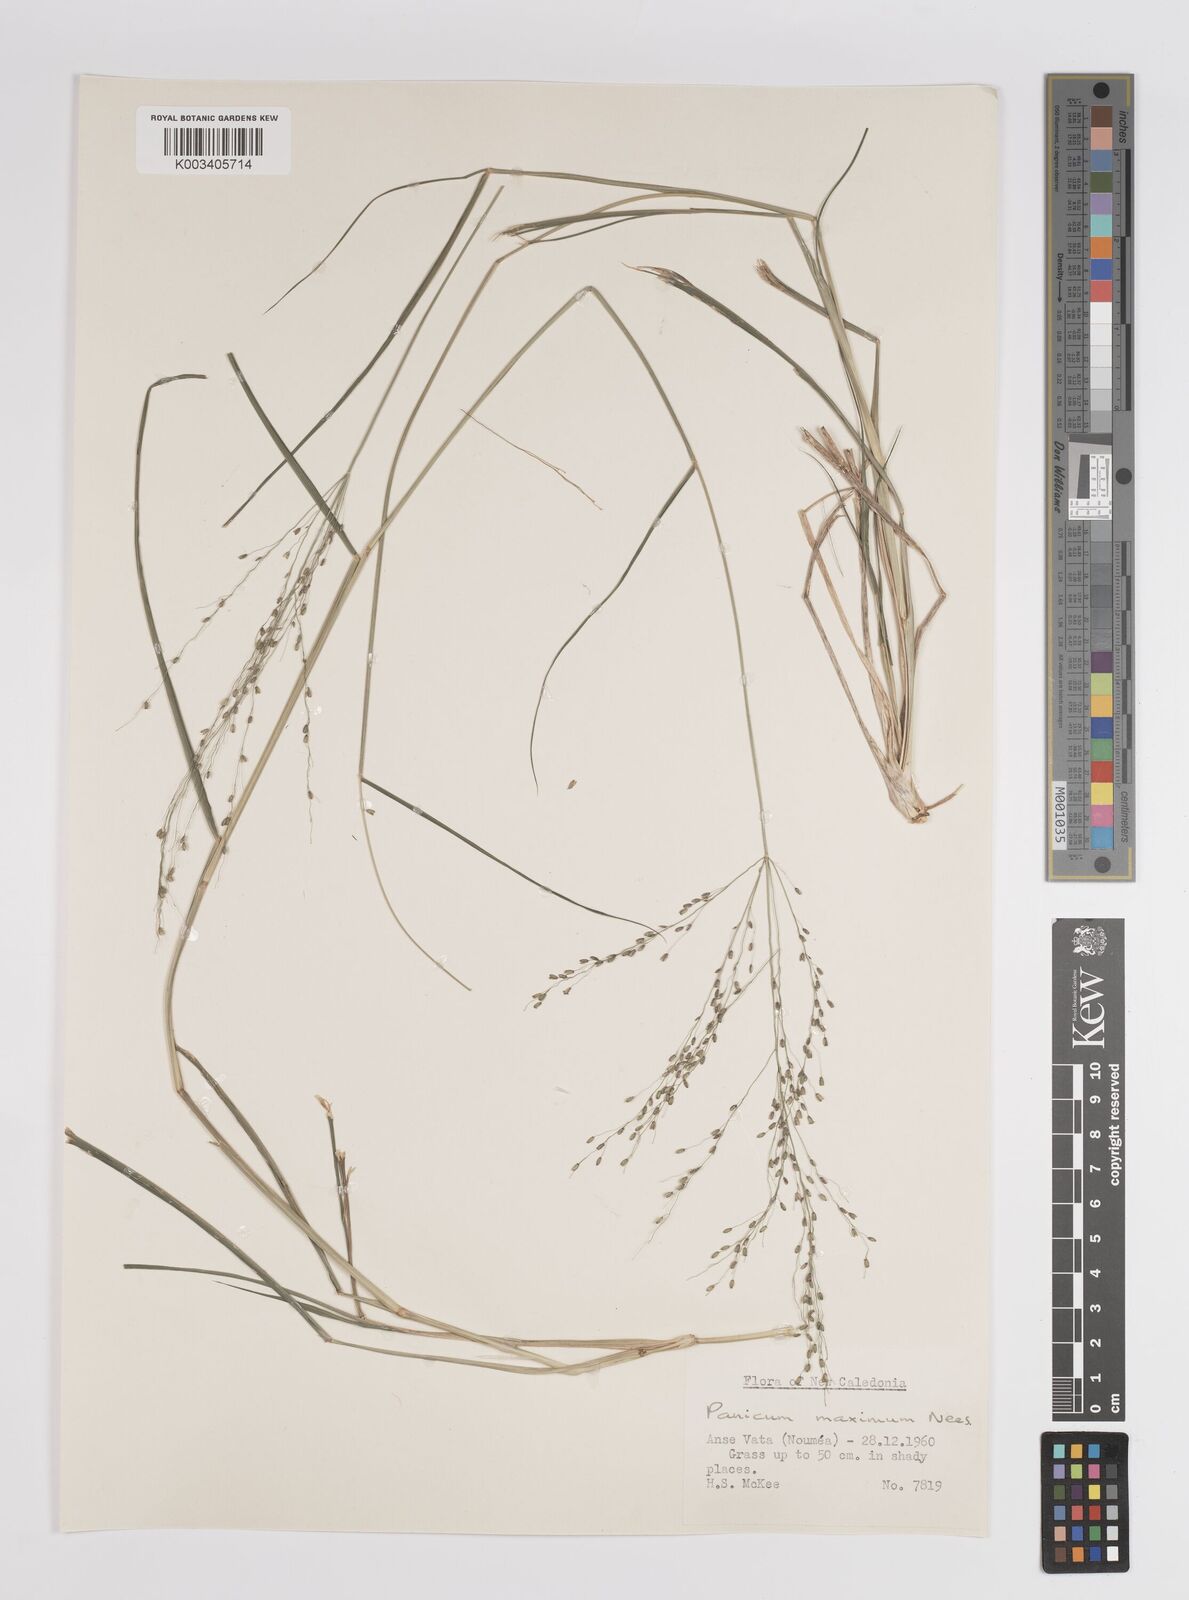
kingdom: Plantae
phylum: Tracheophyta
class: Liliopsida
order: Poales
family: Poaceae
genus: Megathyrsus
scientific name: Megathyrsus maximus
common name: Guineagrass
